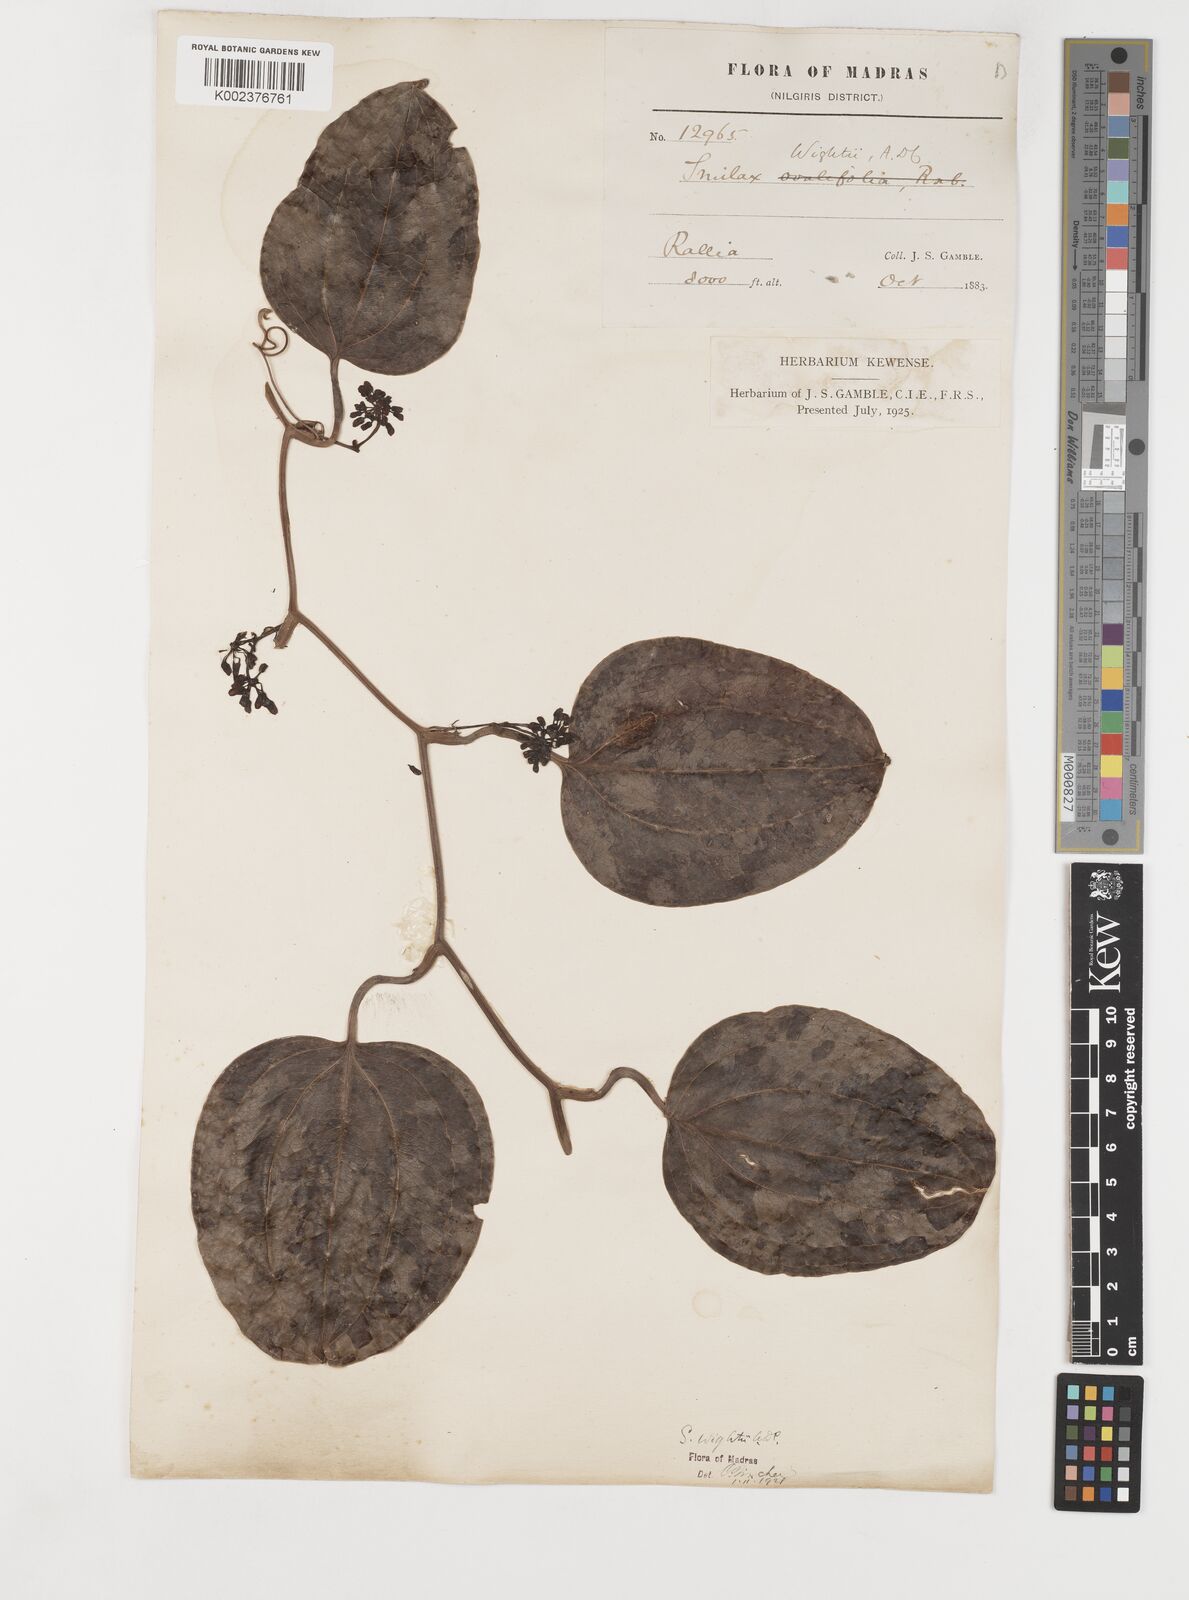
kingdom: Plantae
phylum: Tracheophyta
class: Liliopsida
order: Liliales
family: Smilacaceae
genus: Smilax
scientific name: Smilax wightii
